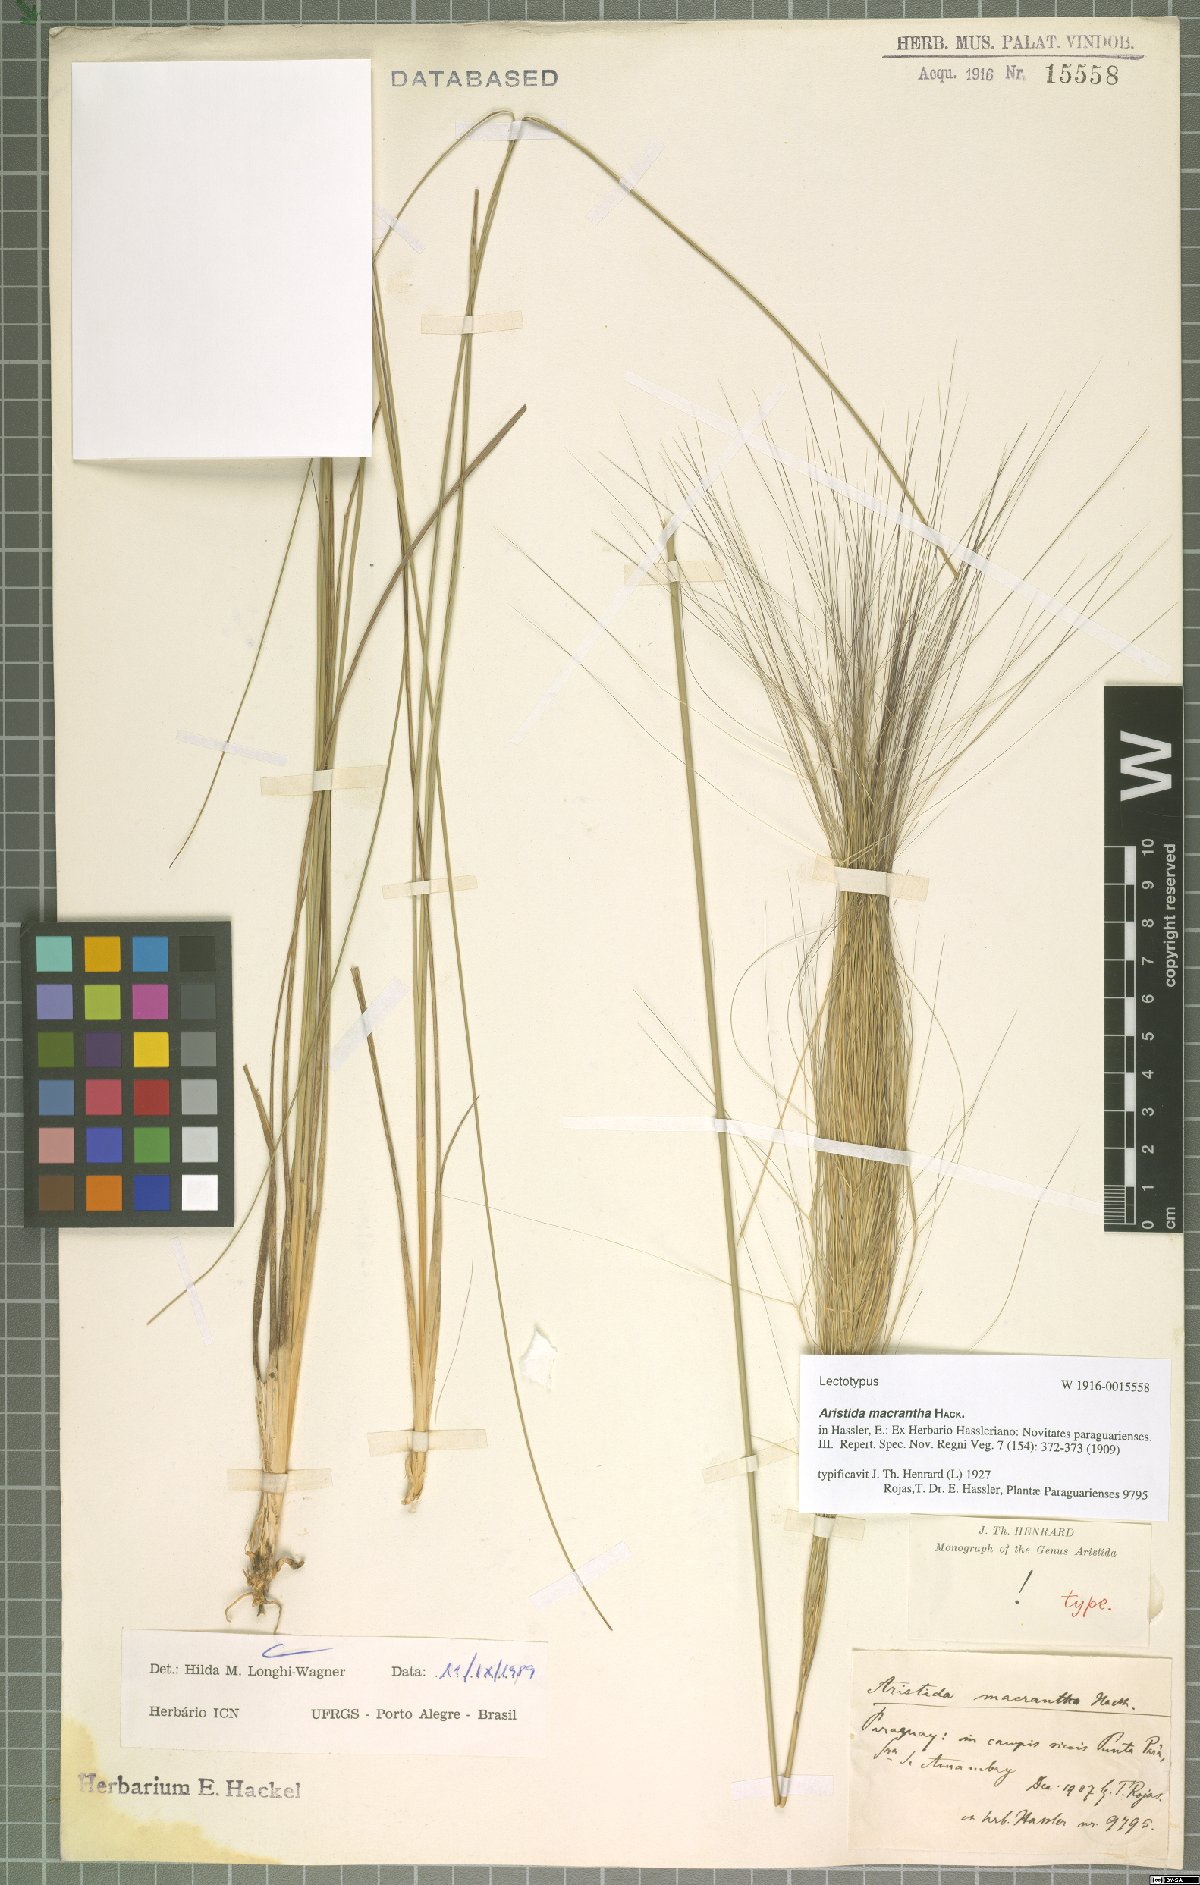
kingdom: Plantae
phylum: Tracheophyta
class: Liliopsida
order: Poales
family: Poaceae
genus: Aristida
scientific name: Aristida macrantha
